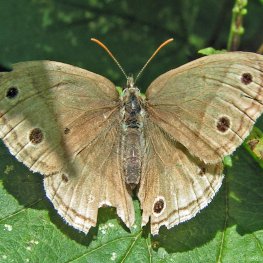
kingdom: Animalia
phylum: Arthropoda
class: Insecta
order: Lepidoptera
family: Nymphalidae
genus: Euptychia
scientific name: Euptychia cymela
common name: Little Wood Satyr
